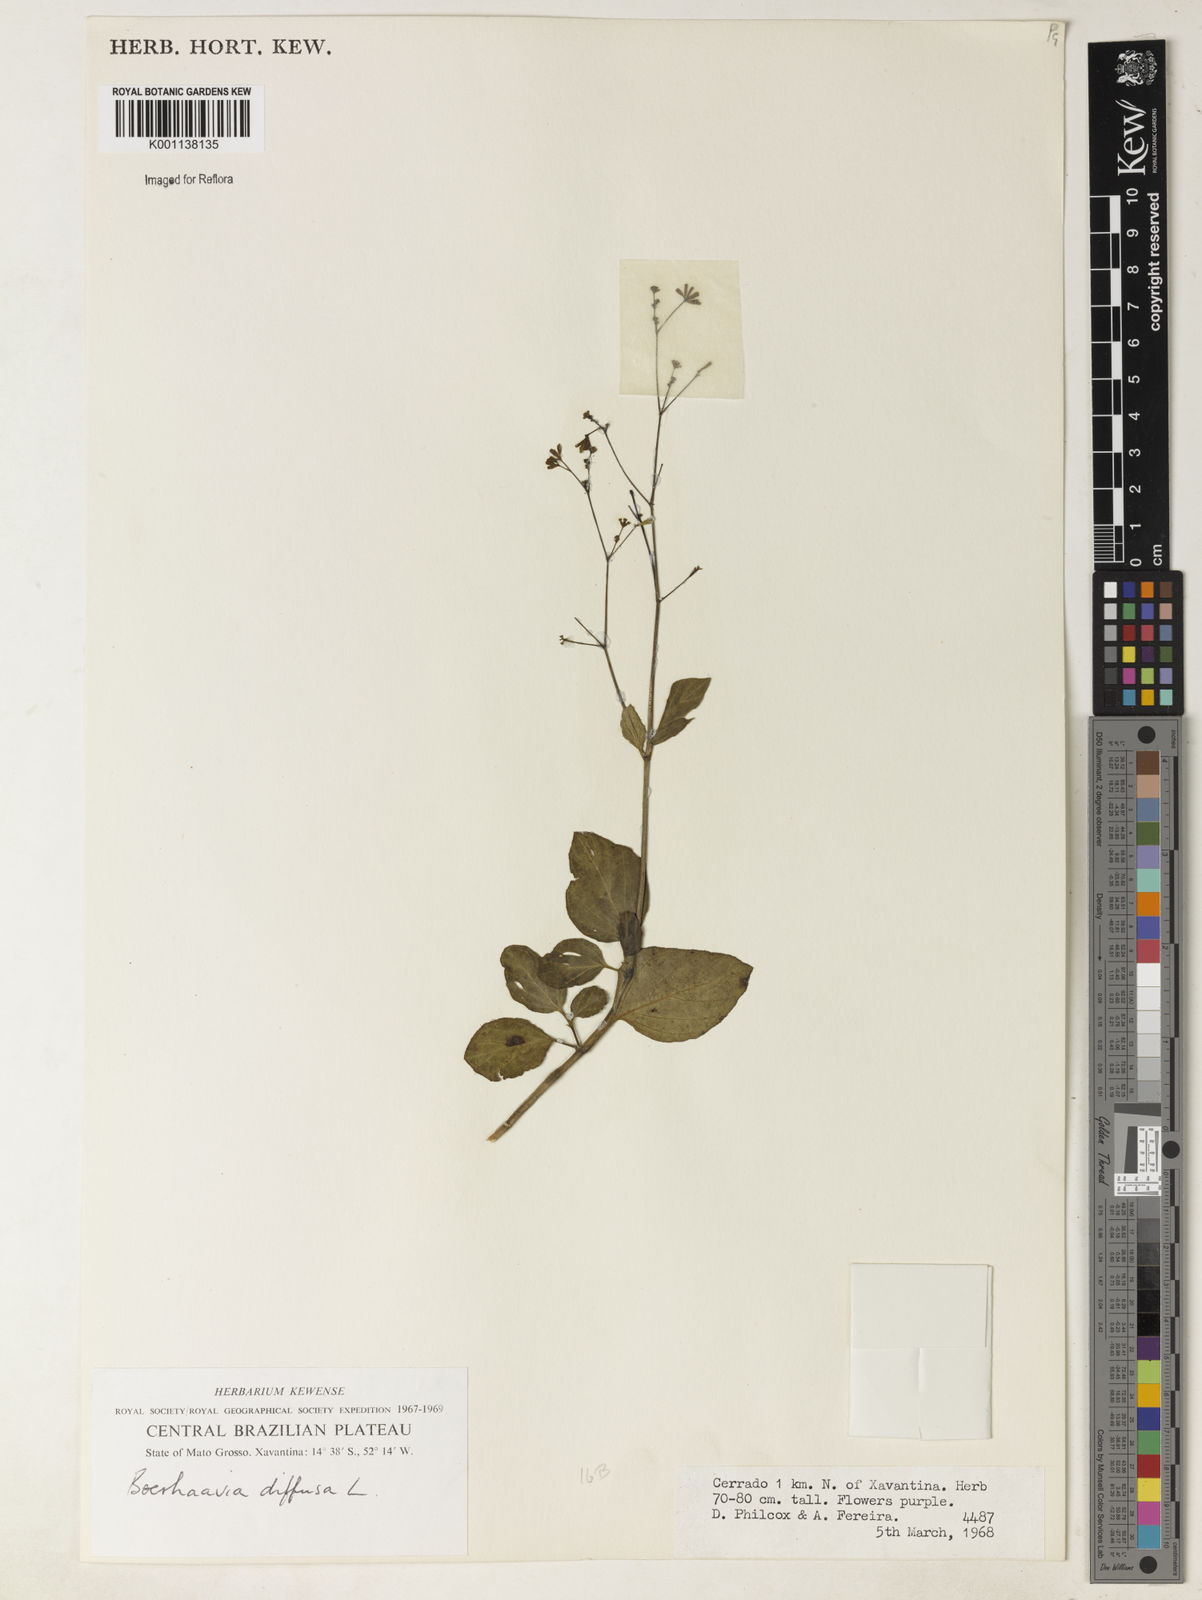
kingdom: Plantae
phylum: Tracheophyta
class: Magnoliopsida
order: Caryophyllales
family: Nyctaginaceae
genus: Boerhavia
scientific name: Boerhavia diffusa
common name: Red spiderling
